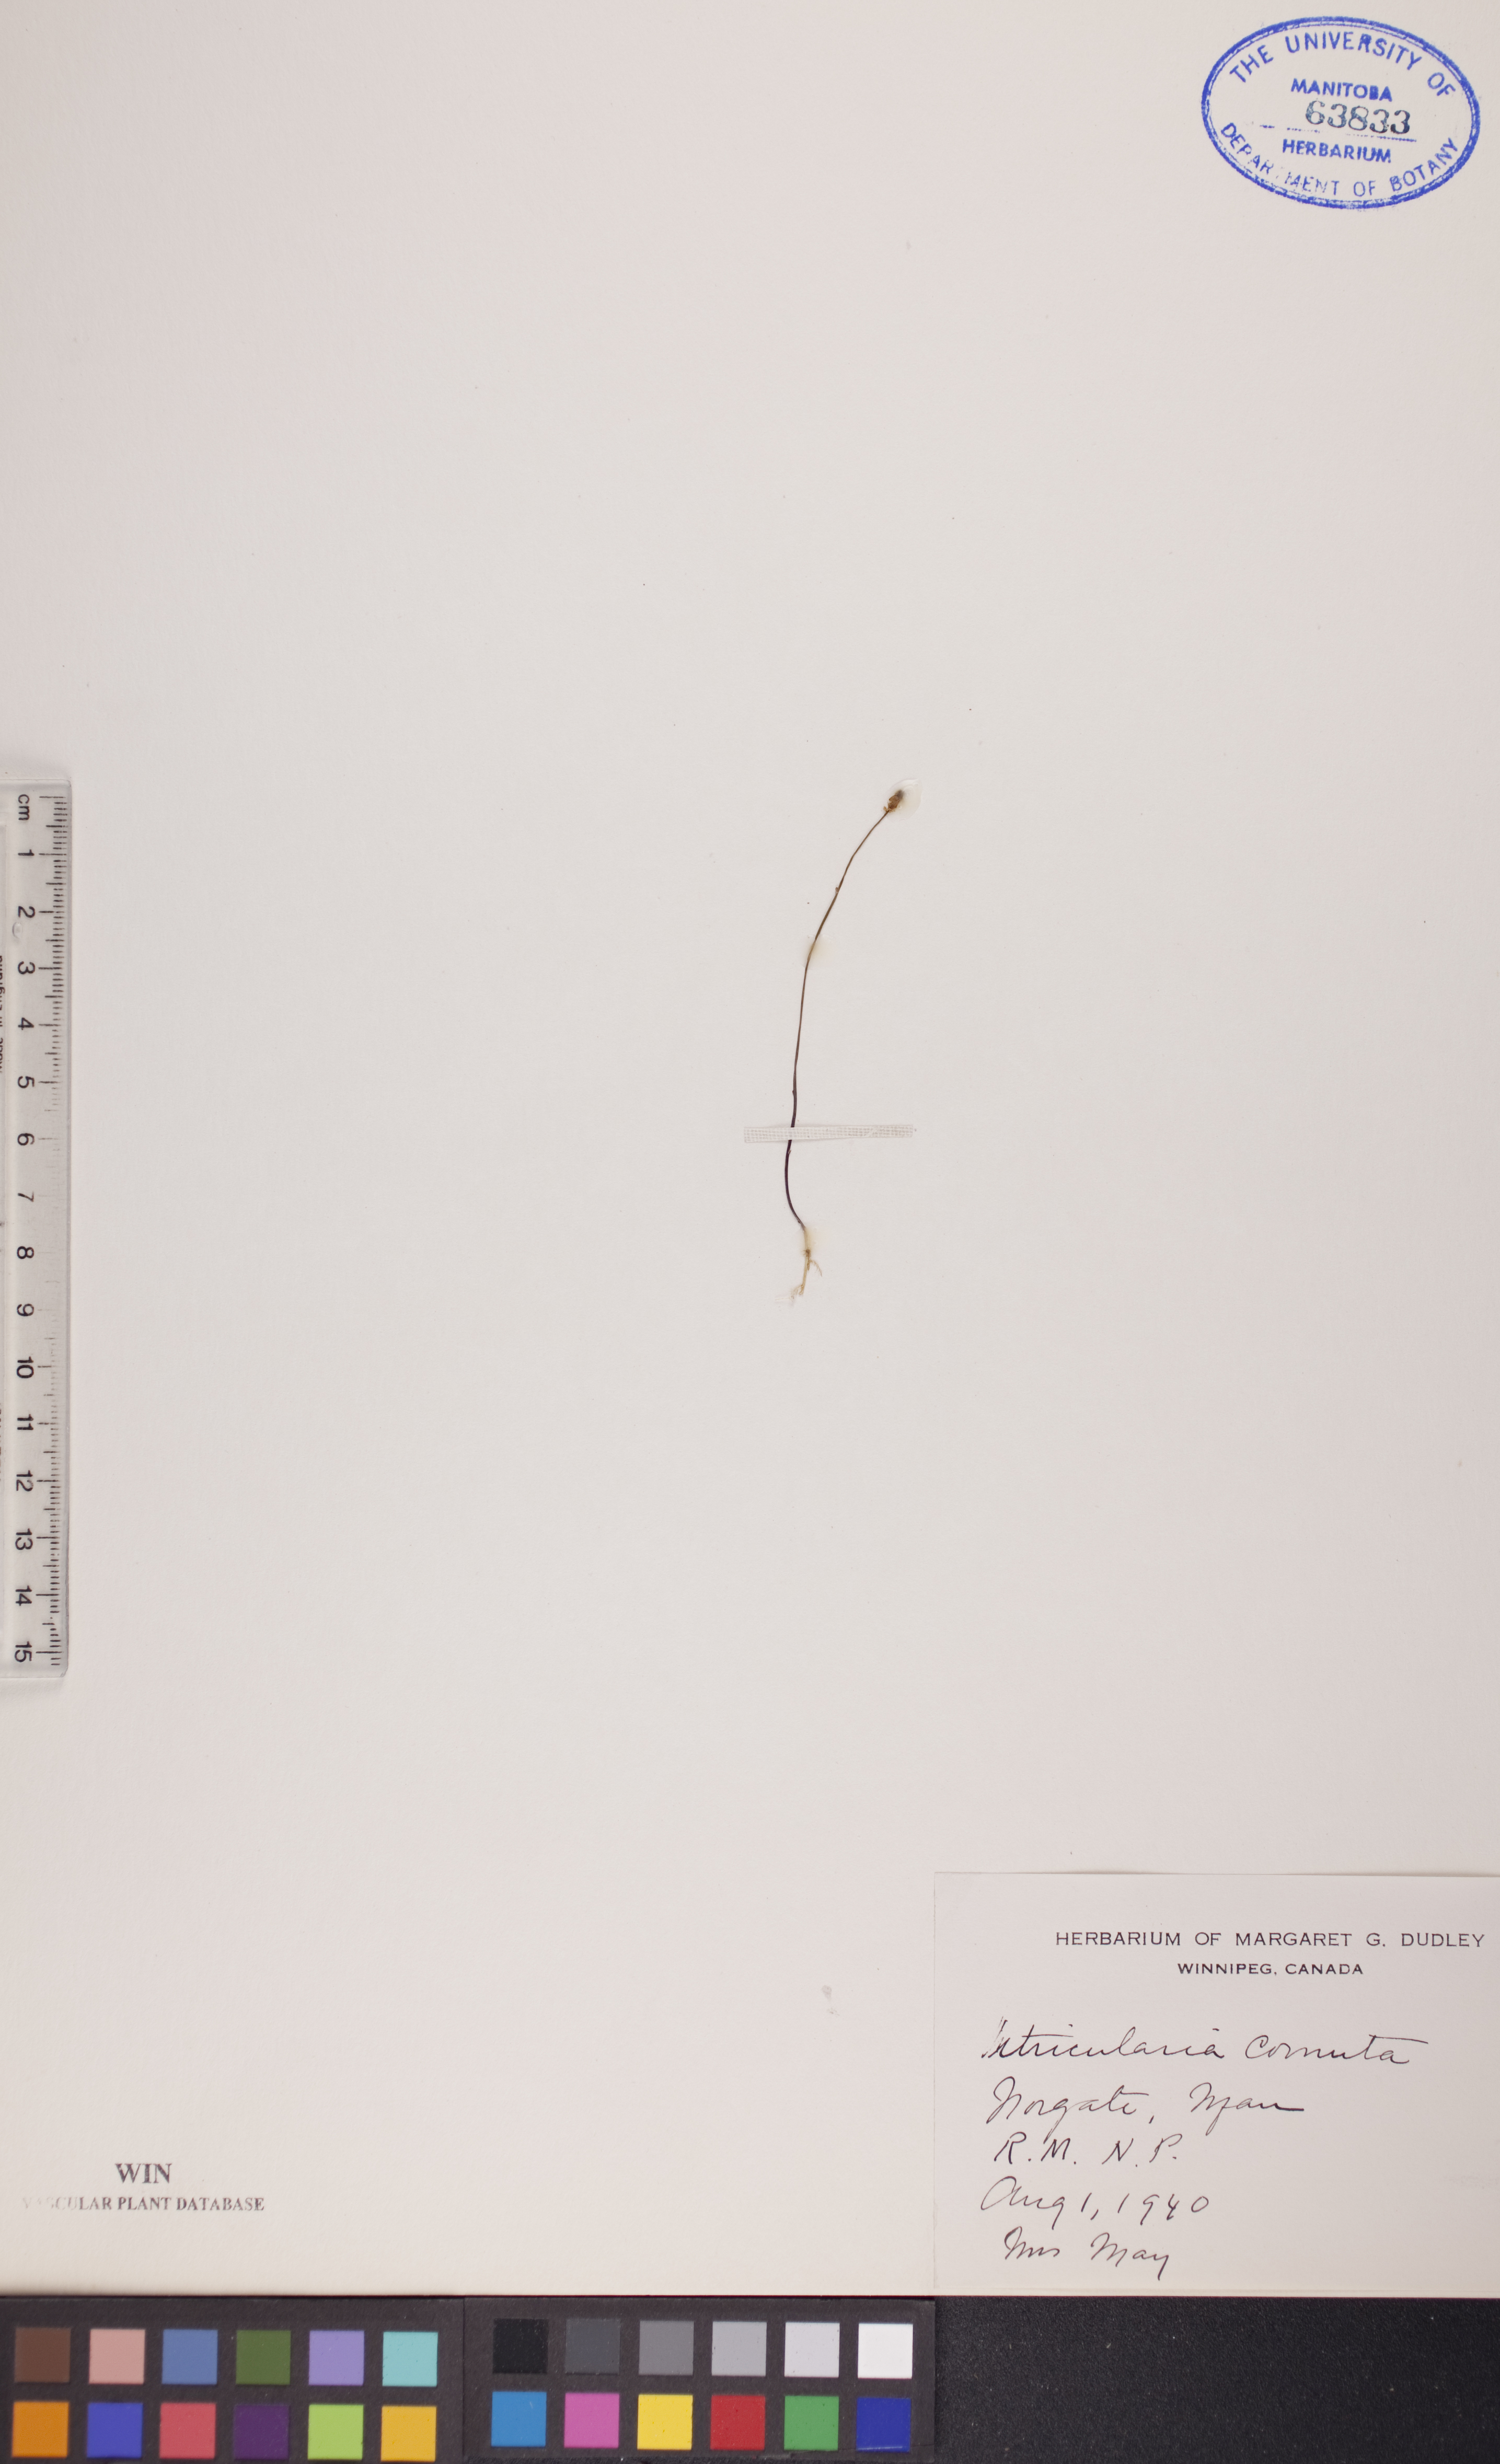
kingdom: Plantae
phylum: Tracheophyta
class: Magnoliopsida
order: Lamiales
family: Lentibulariaceae
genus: Utricularia
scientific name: Utricularia cornuta
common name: Horned bladderwort
